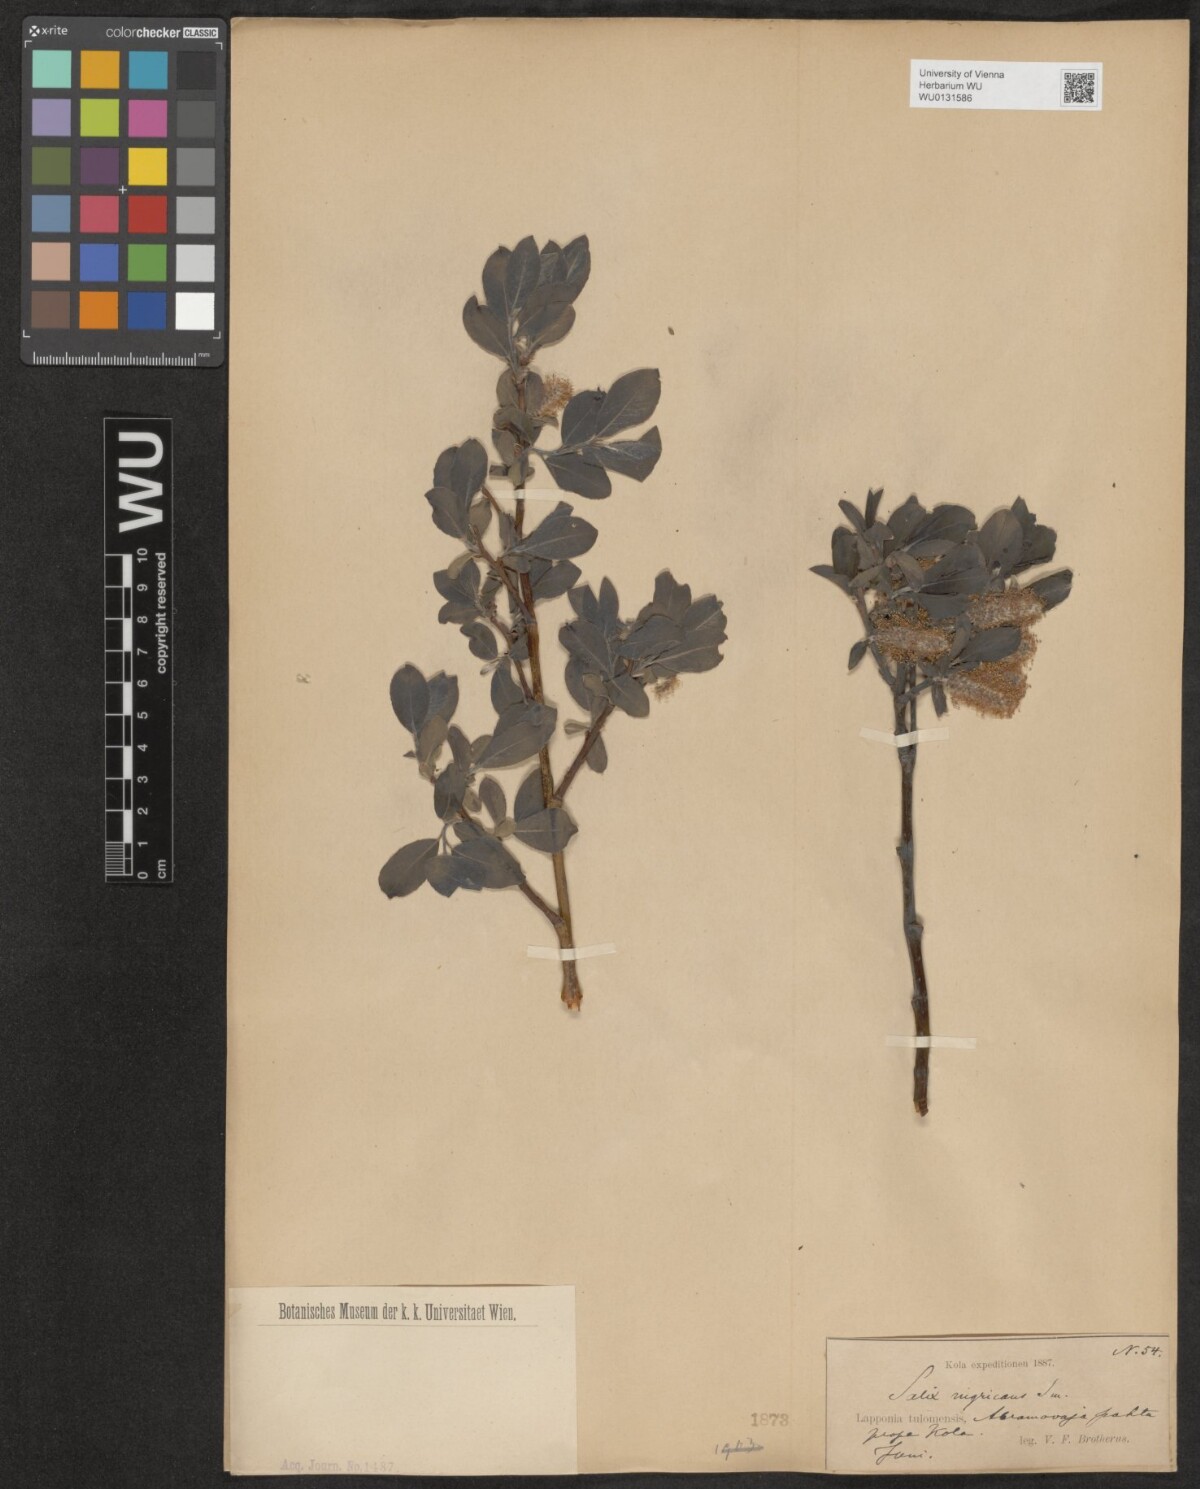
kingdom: Plantae
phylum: Tracheophyta
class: Magnoliopsida
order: Malpighiales
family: Salicaceae
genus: Salix
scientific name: Salix myrsinifolia
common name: Dark-leaved willow
